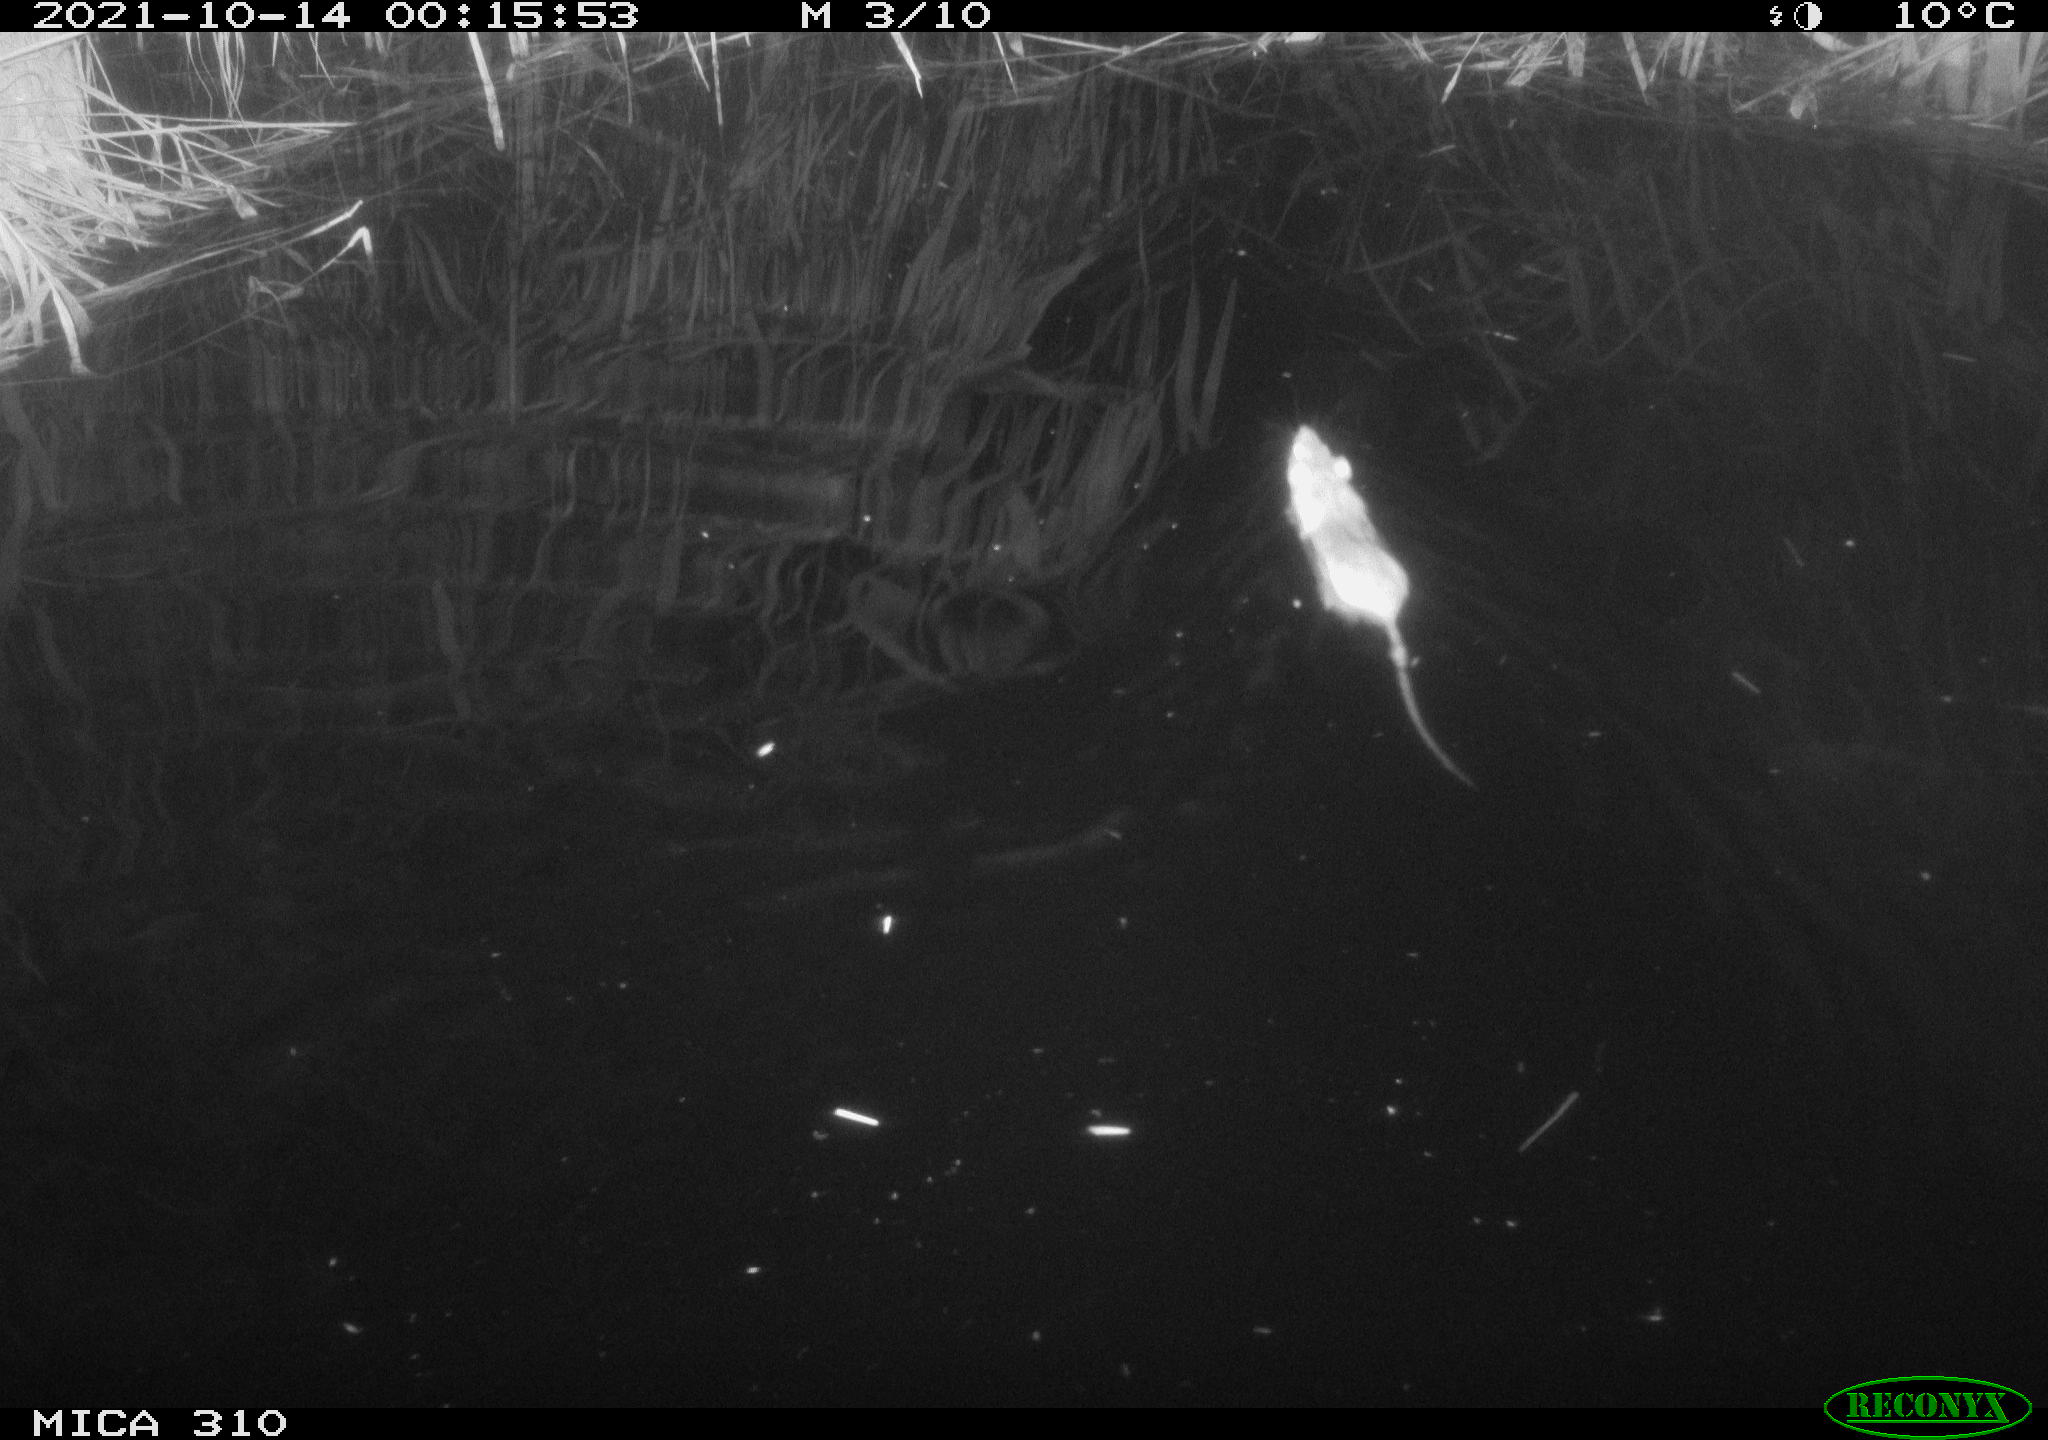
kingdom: Animalia
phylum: Chordata
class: Mammalia
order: Rodentia
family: Muridae
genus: Rattus
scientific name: Rattus norvegicus
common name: Brown rat
